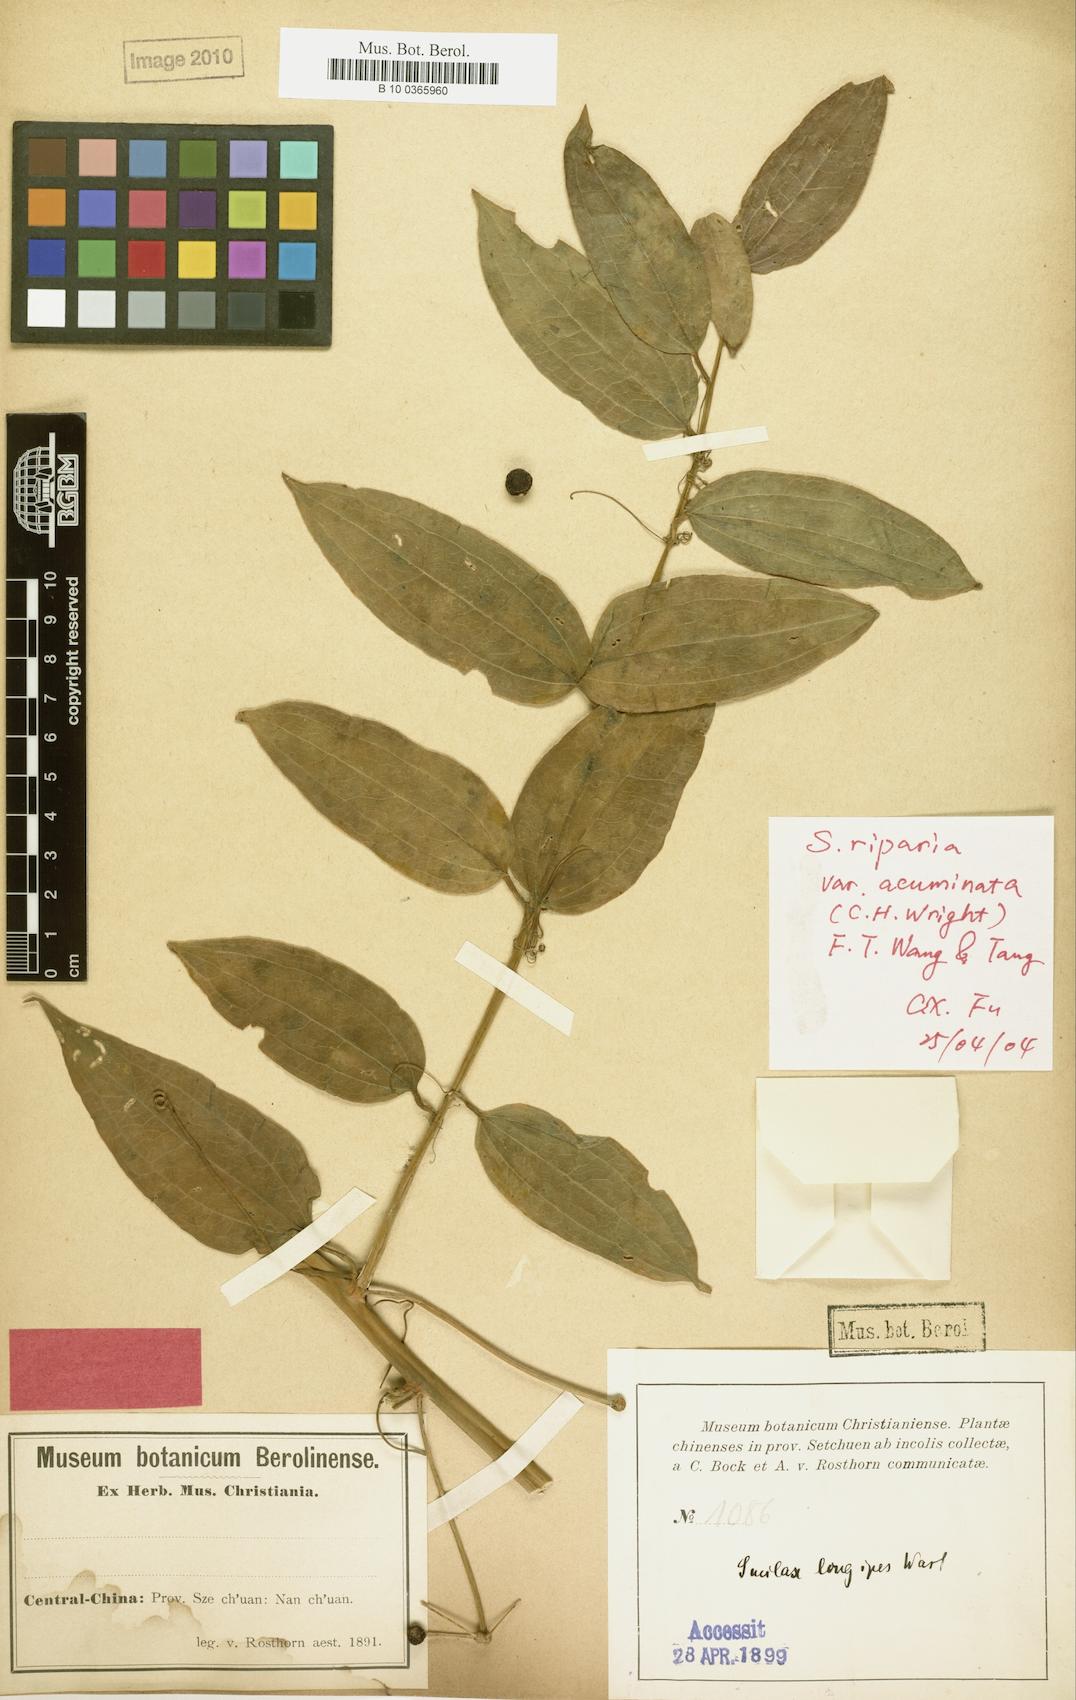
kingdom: Plantae
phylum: Tracheophyta
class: Liliopsida
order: Liliales
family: Smilacaceae
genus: Smilax
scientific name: Smilax riparia
